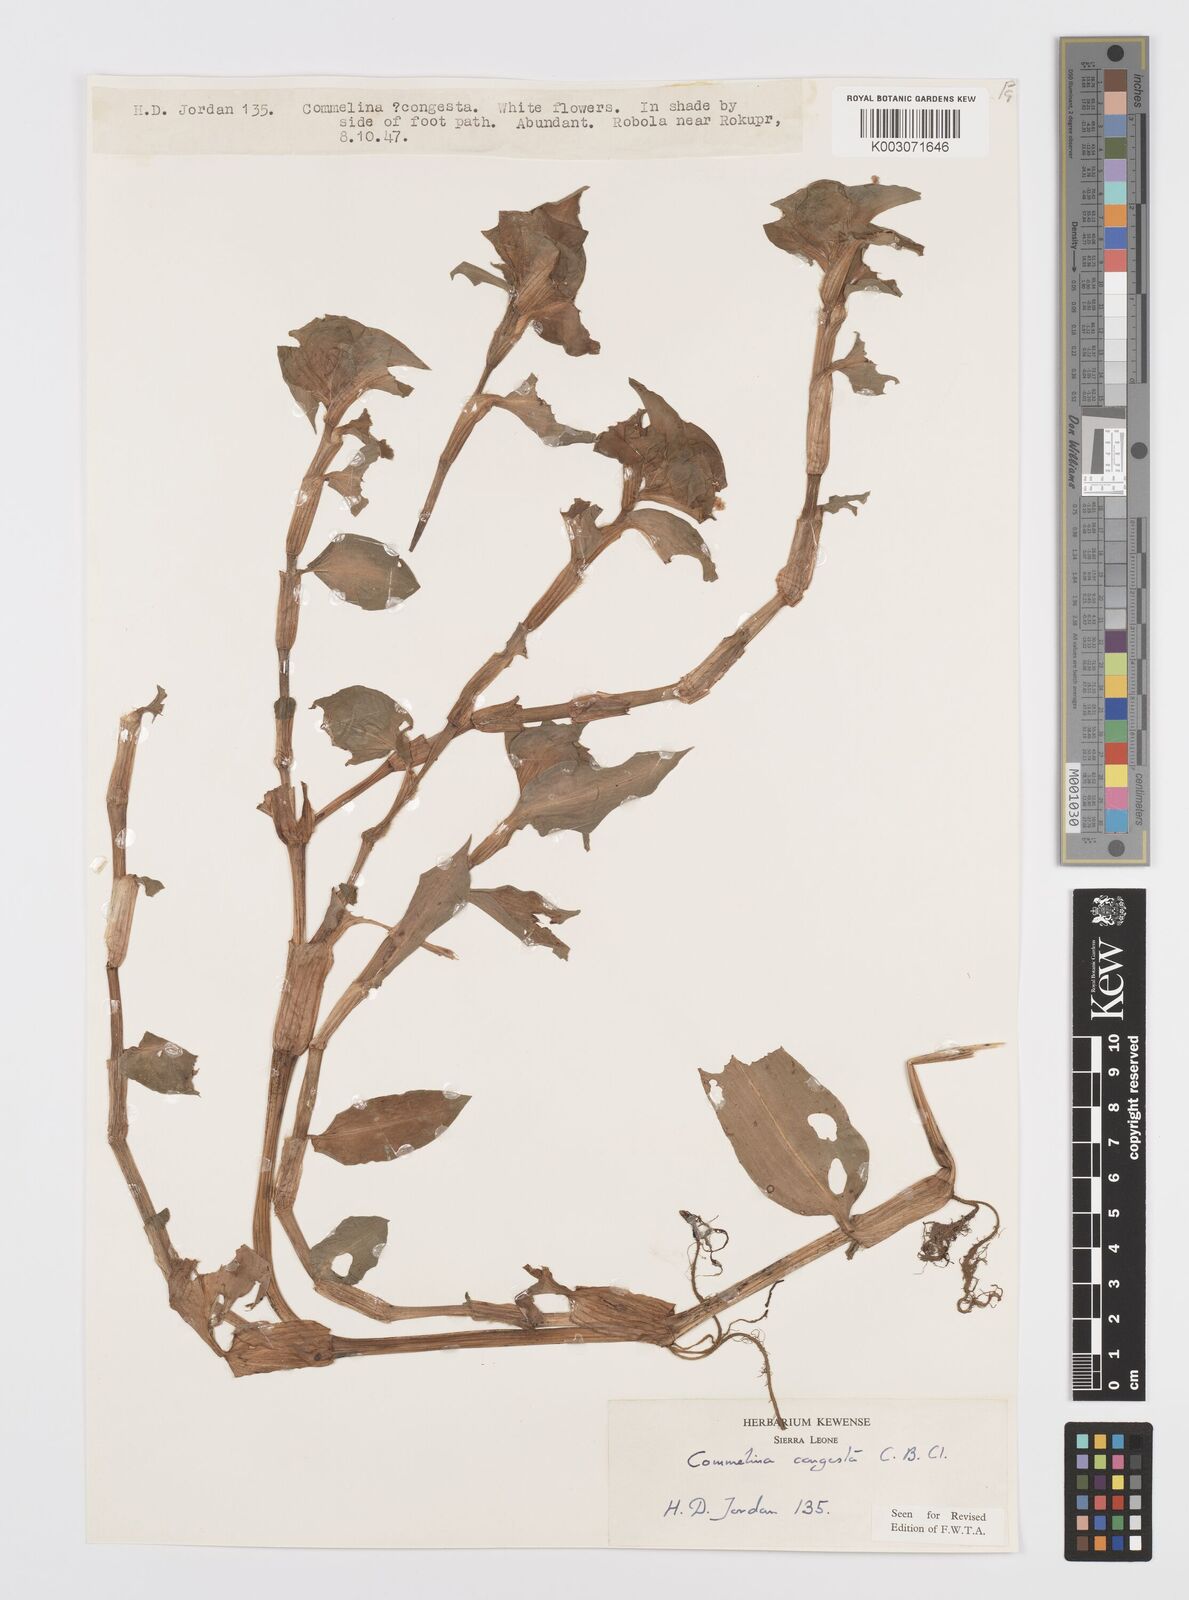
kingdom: Plantae
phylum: Tracheophyta
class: Liliopsida
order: Commelinales
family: Commelinaceae
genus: Commelina
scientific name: Commelina congesta
